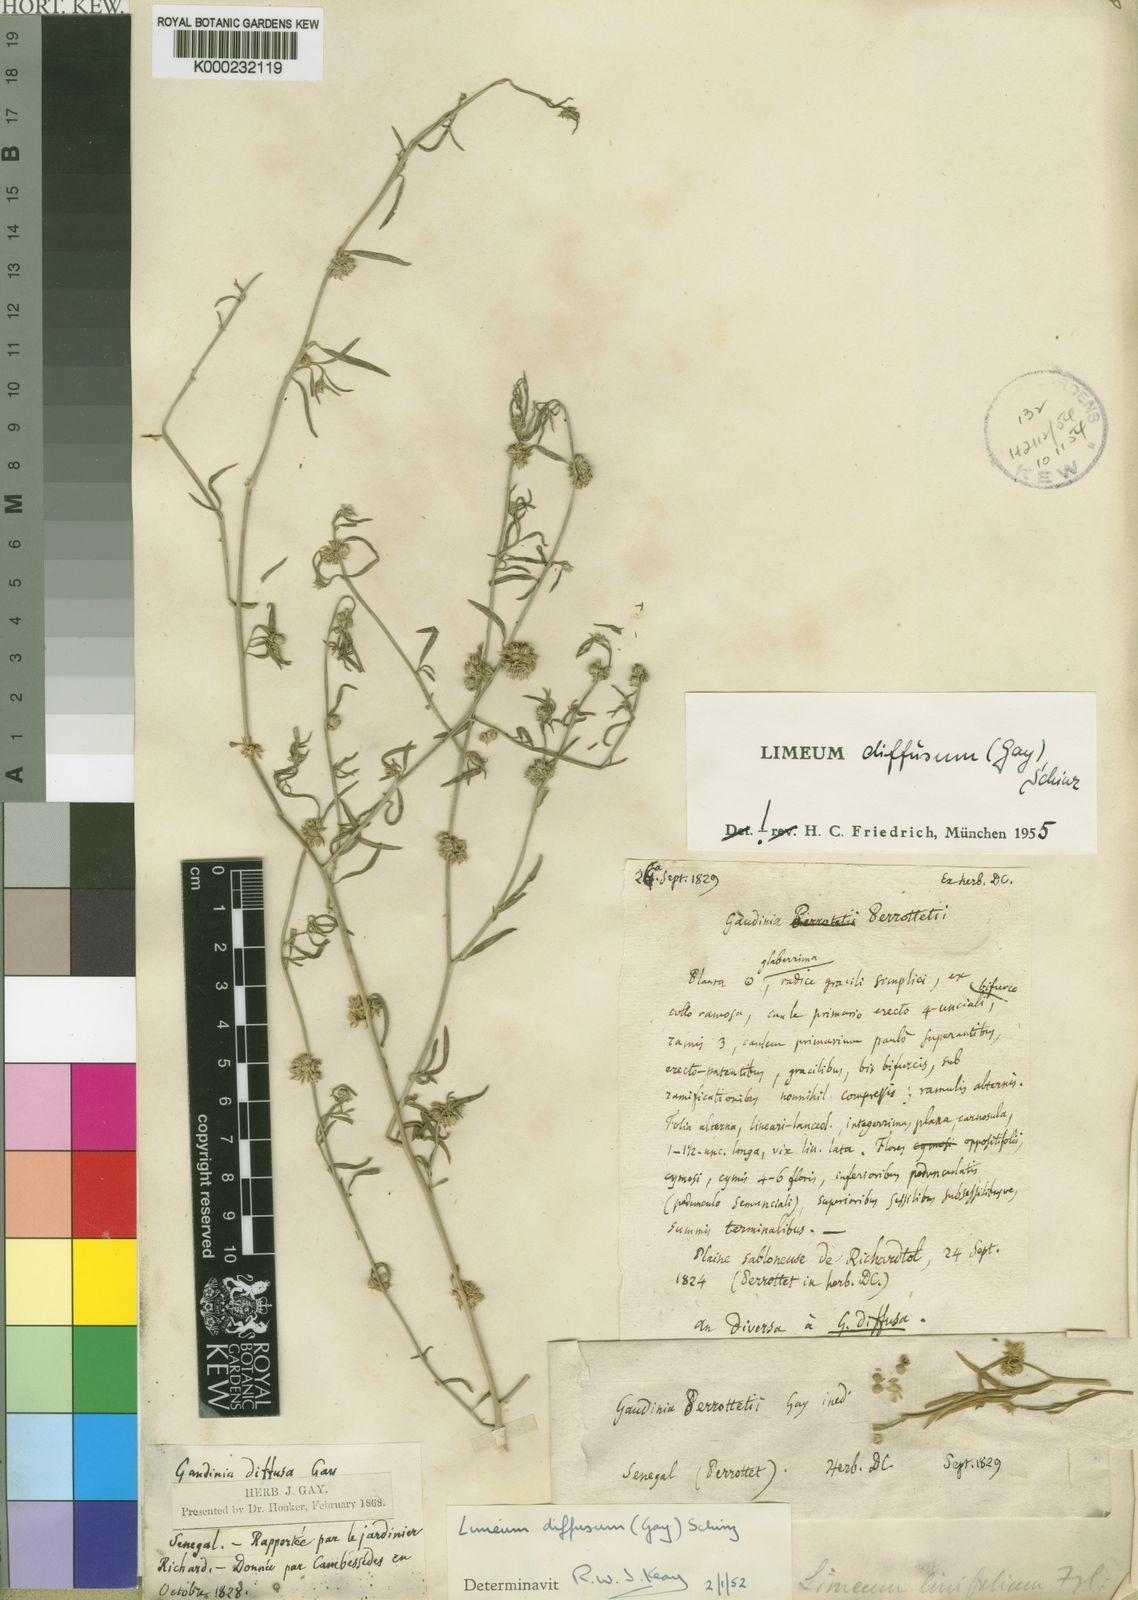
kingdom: Plantae
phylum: Tracheophyta
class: Magnoliopsida
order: Caryophyllales
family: Limeaceae
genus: Limeum
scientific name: Limeum diffusum
